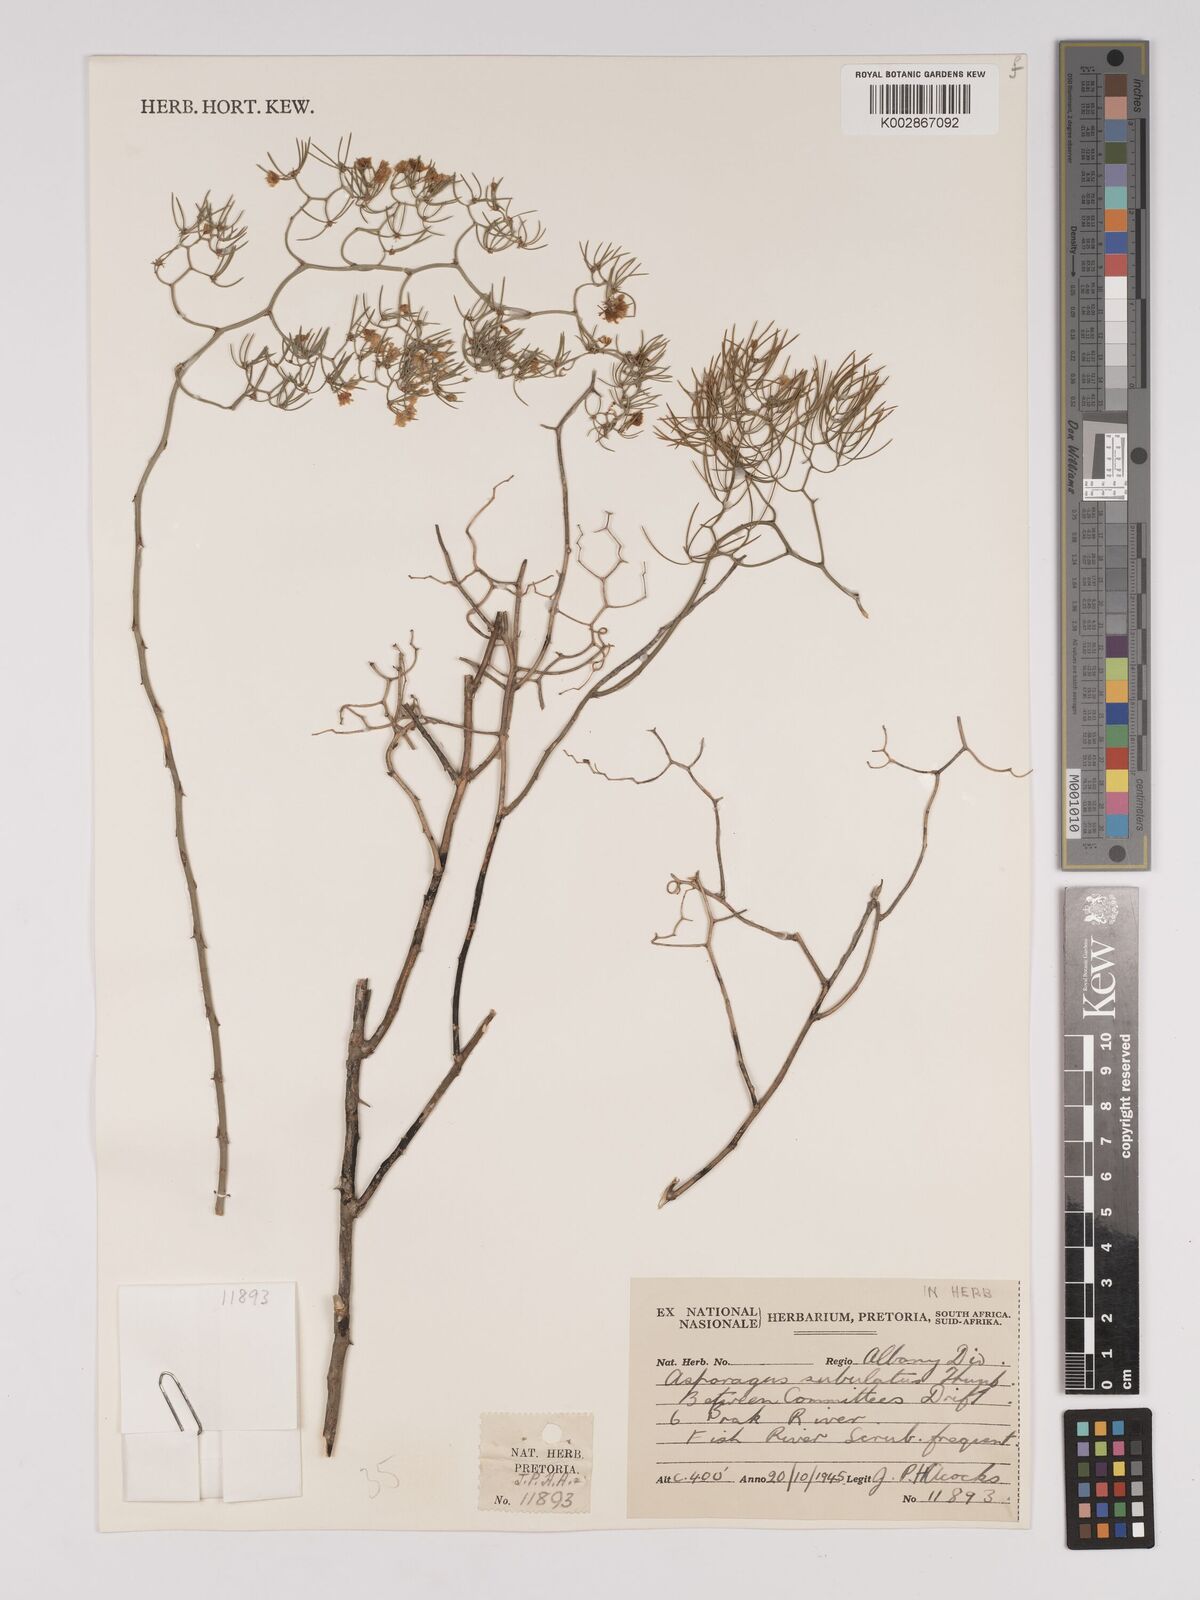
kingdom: Plantae
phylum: Tracheophyta
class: Liliopsida
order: Asparagales
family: Asparagaceae
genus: Asparagus
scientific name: Asparagus subulatus
